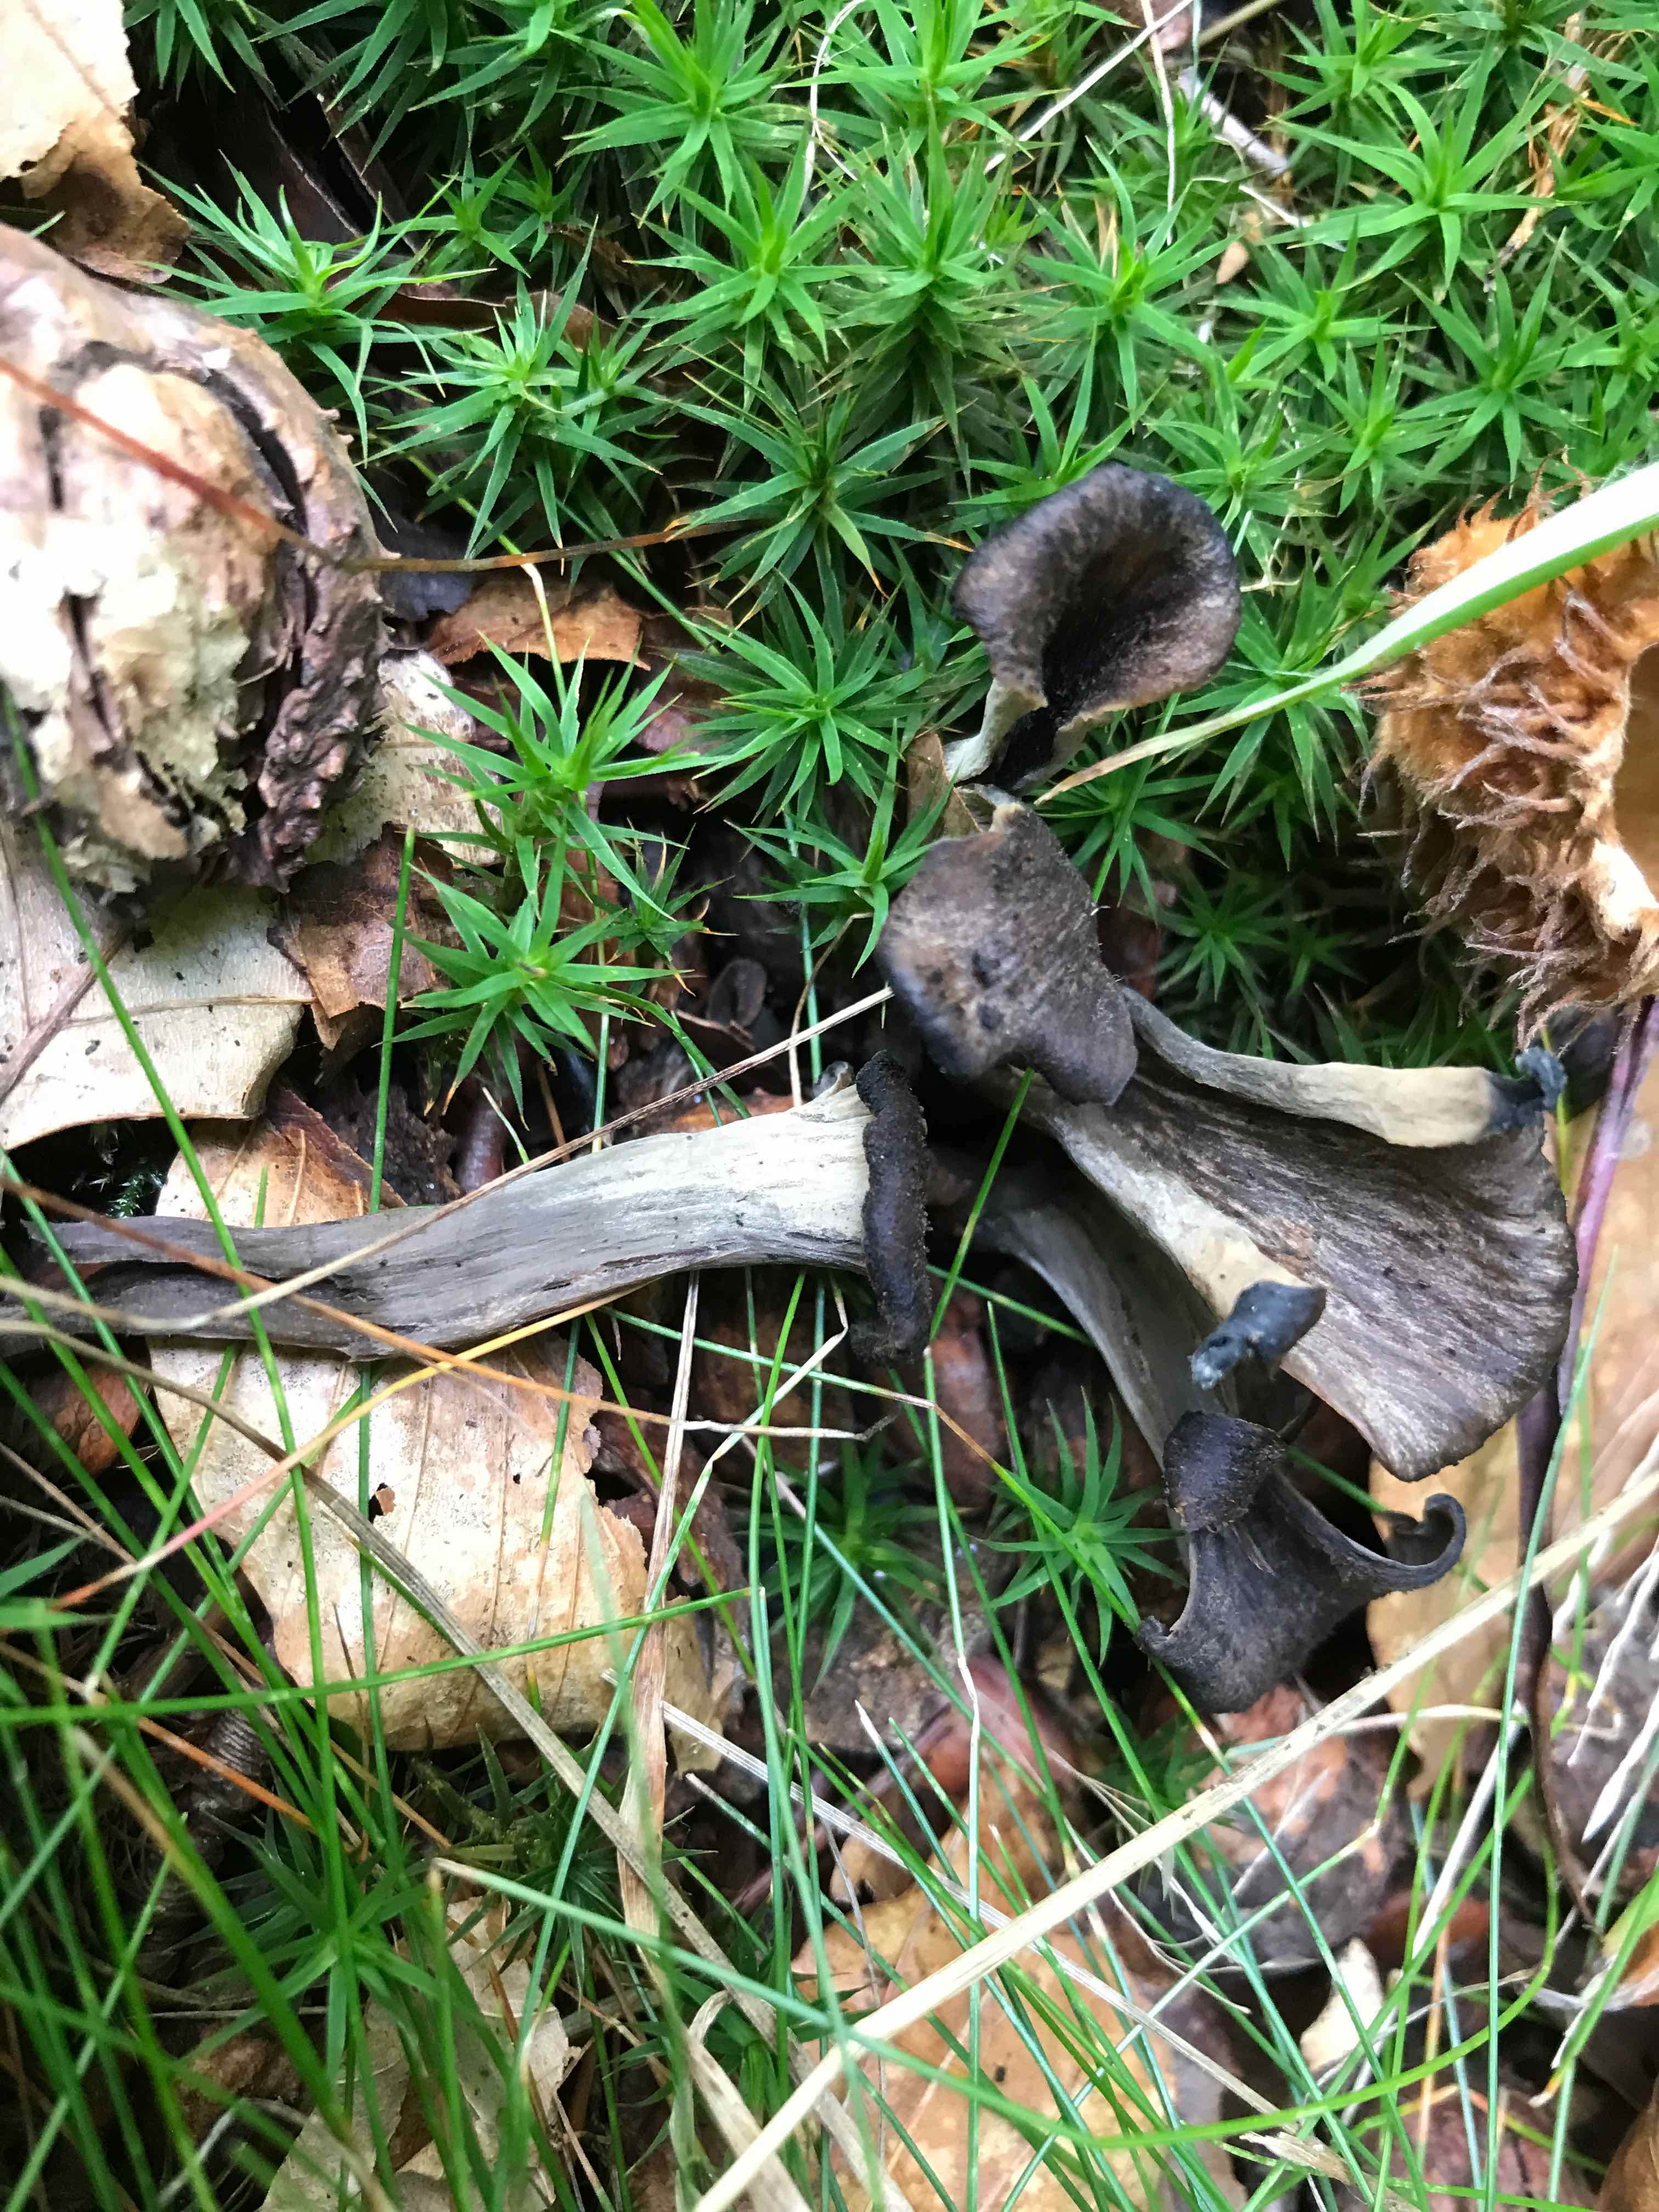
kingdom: Fungi
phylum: Basidiomycota
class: Agaricomycetes
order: Cantharellales
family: Hydnaceae
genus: Craterellus
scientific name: Craterellus cornucopioides
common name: trompetsvamp
